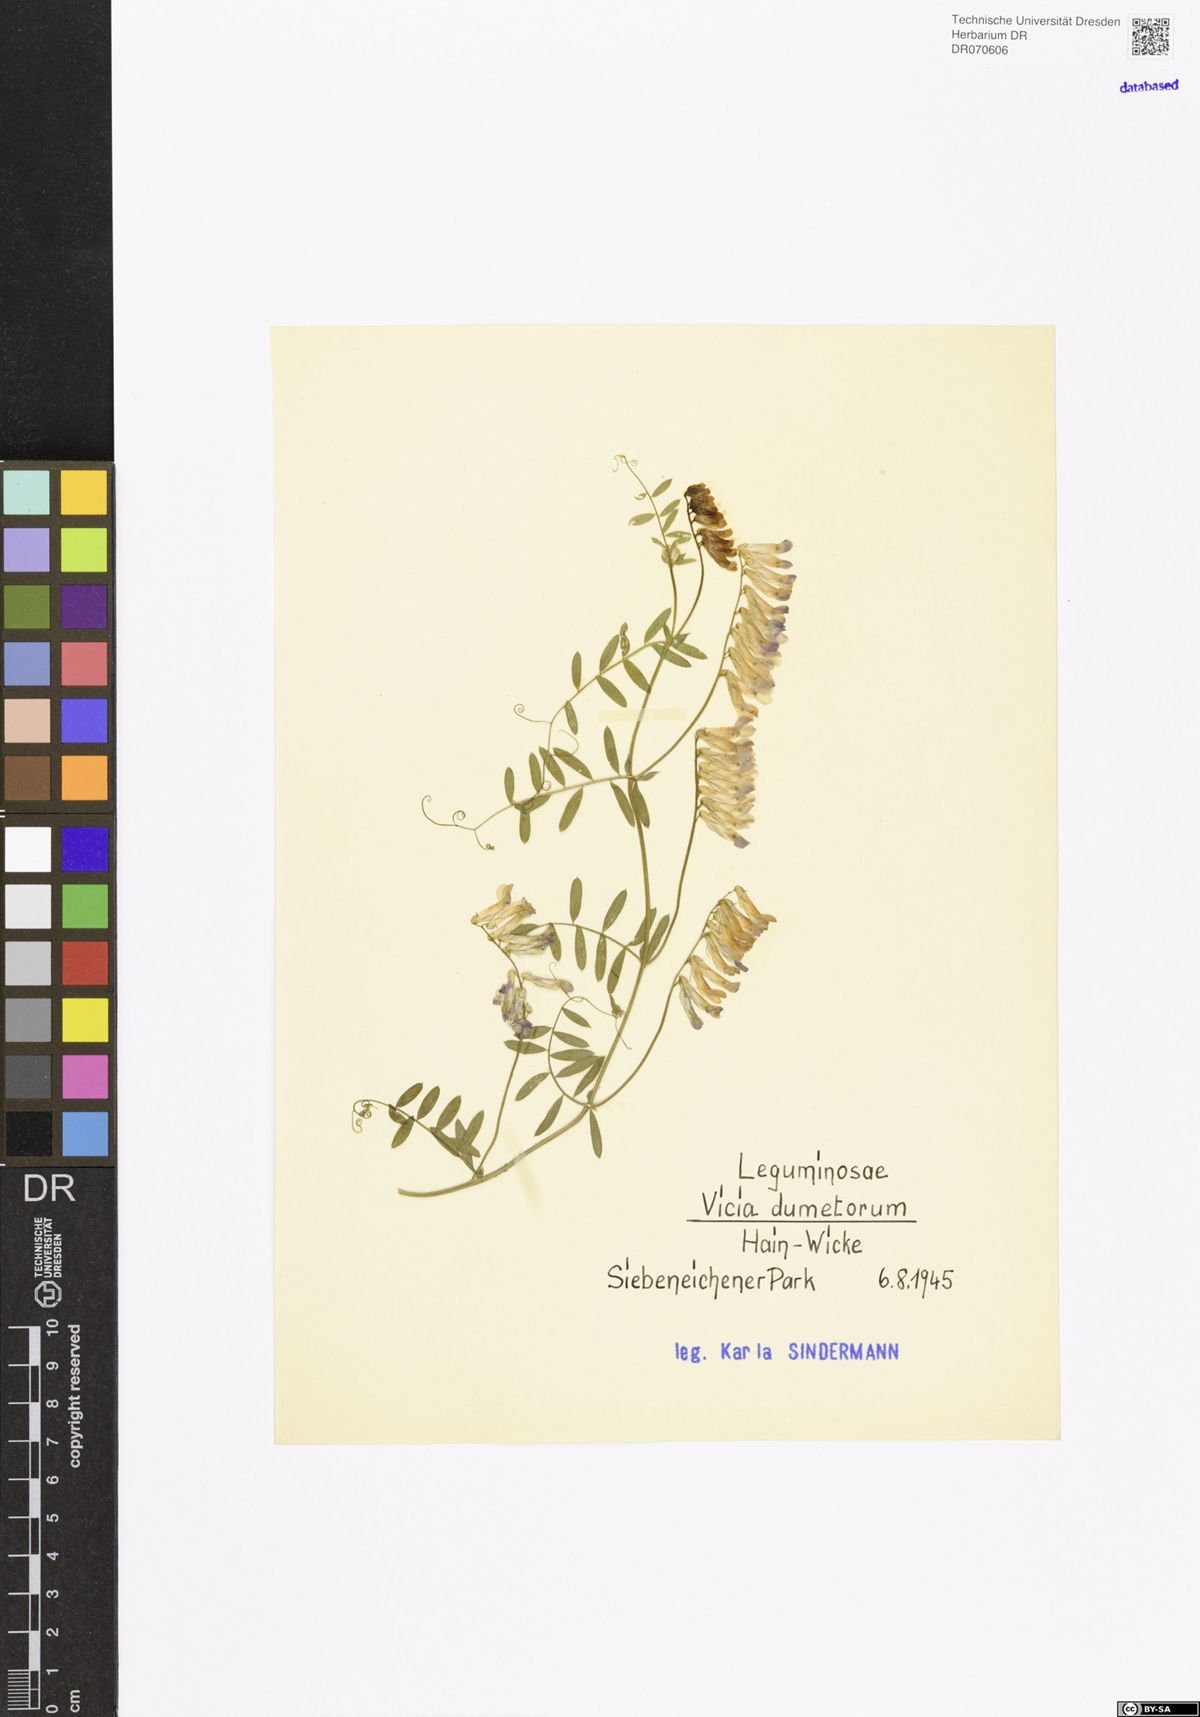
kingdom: Plantae
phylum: Tracheophyta
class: Magnoliopsida
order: Fabales
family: Fabaceae
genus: Vicia
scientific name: Vicia dumetorum
